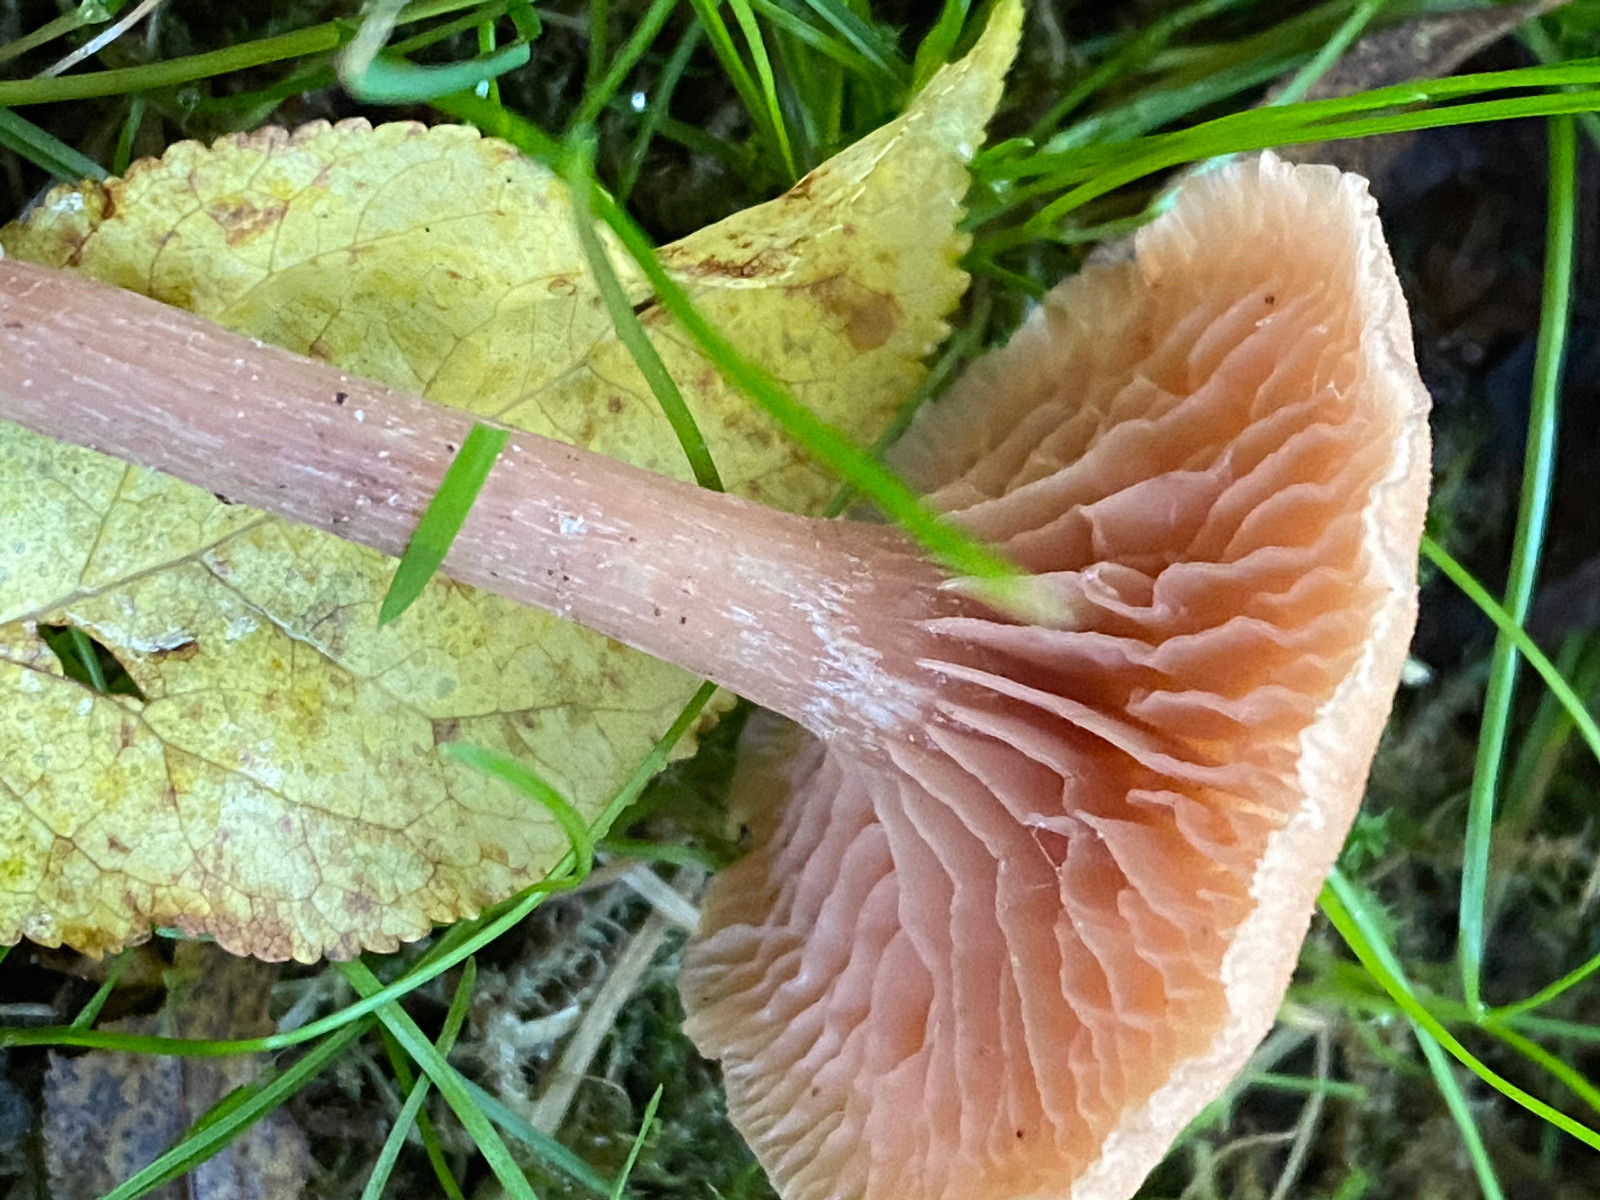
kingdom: Fungi
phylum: Basidiomycota
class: Agaricomycetes
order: Agaricales
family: Hydnangiaceae
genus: Laccaria
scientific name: Laccaria laccata
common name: rød ametysthat
